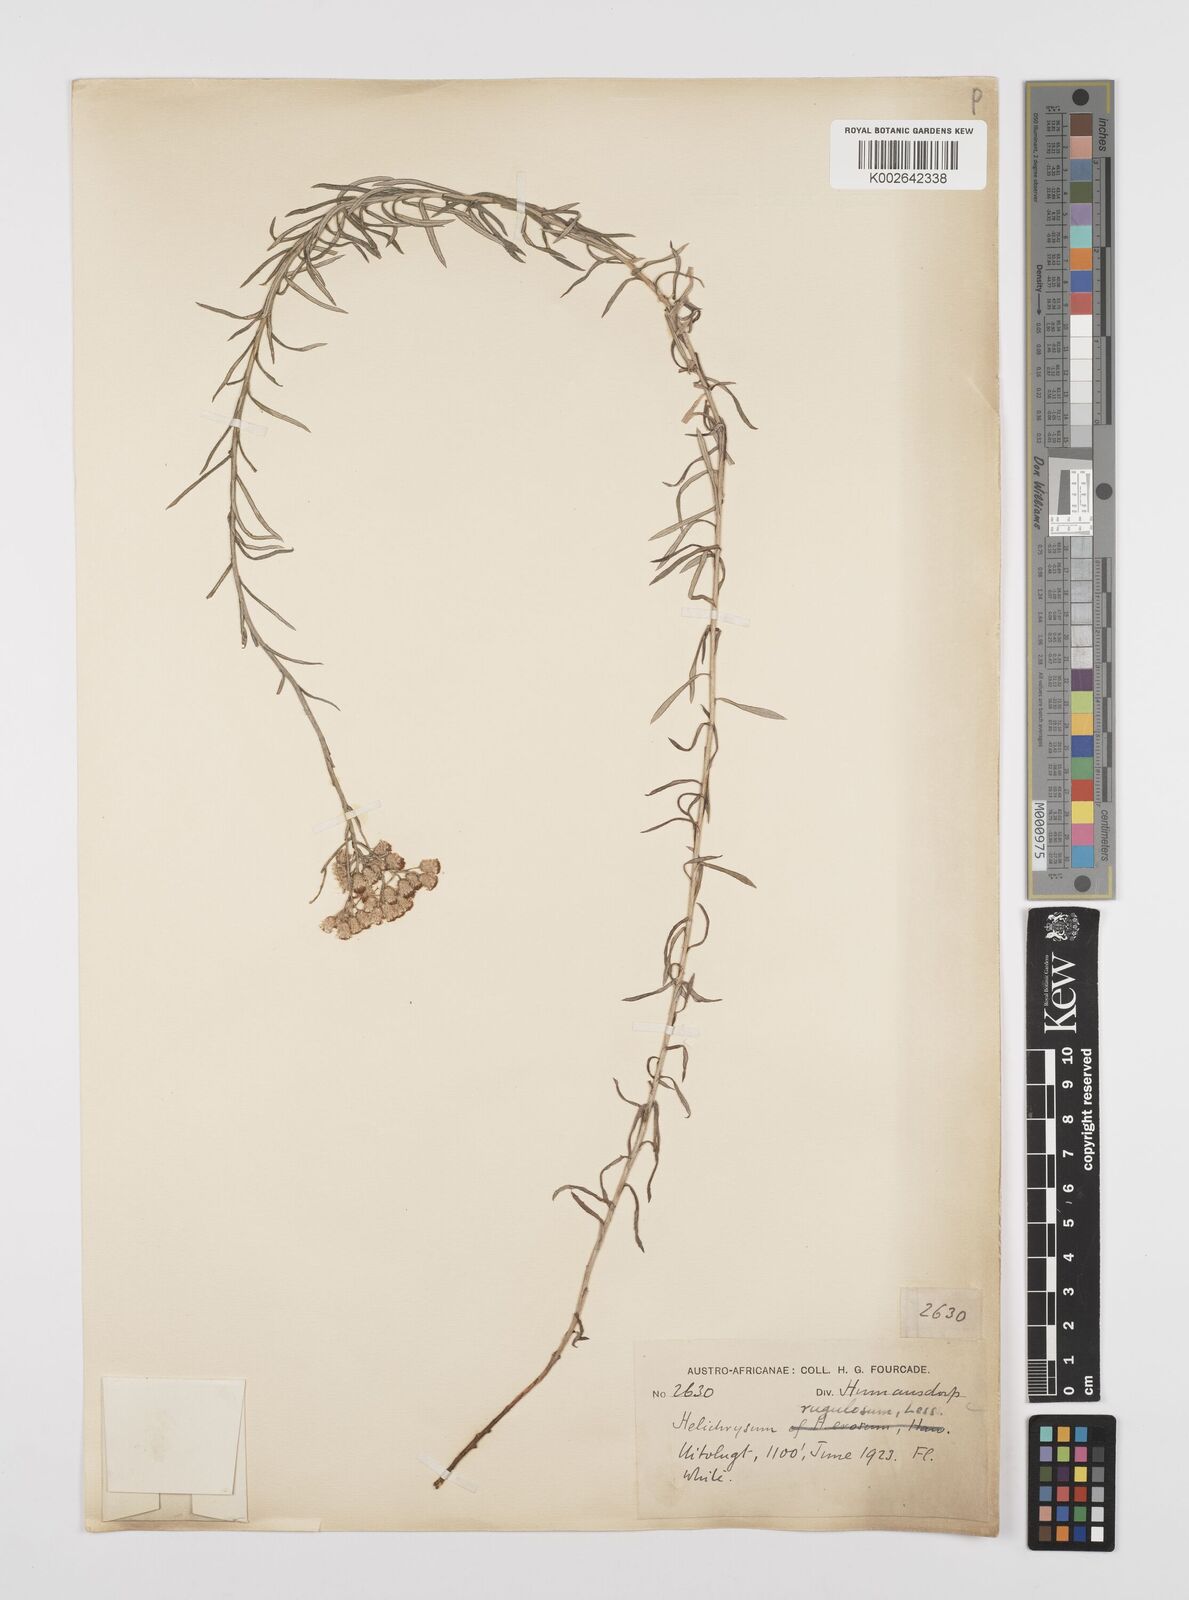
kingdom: Plantae
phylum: Tracheophyta
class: Magnoliopsida
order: Asterales
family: Asteraceae
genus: Helichrysum
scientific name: Helichrysum rugulosum
